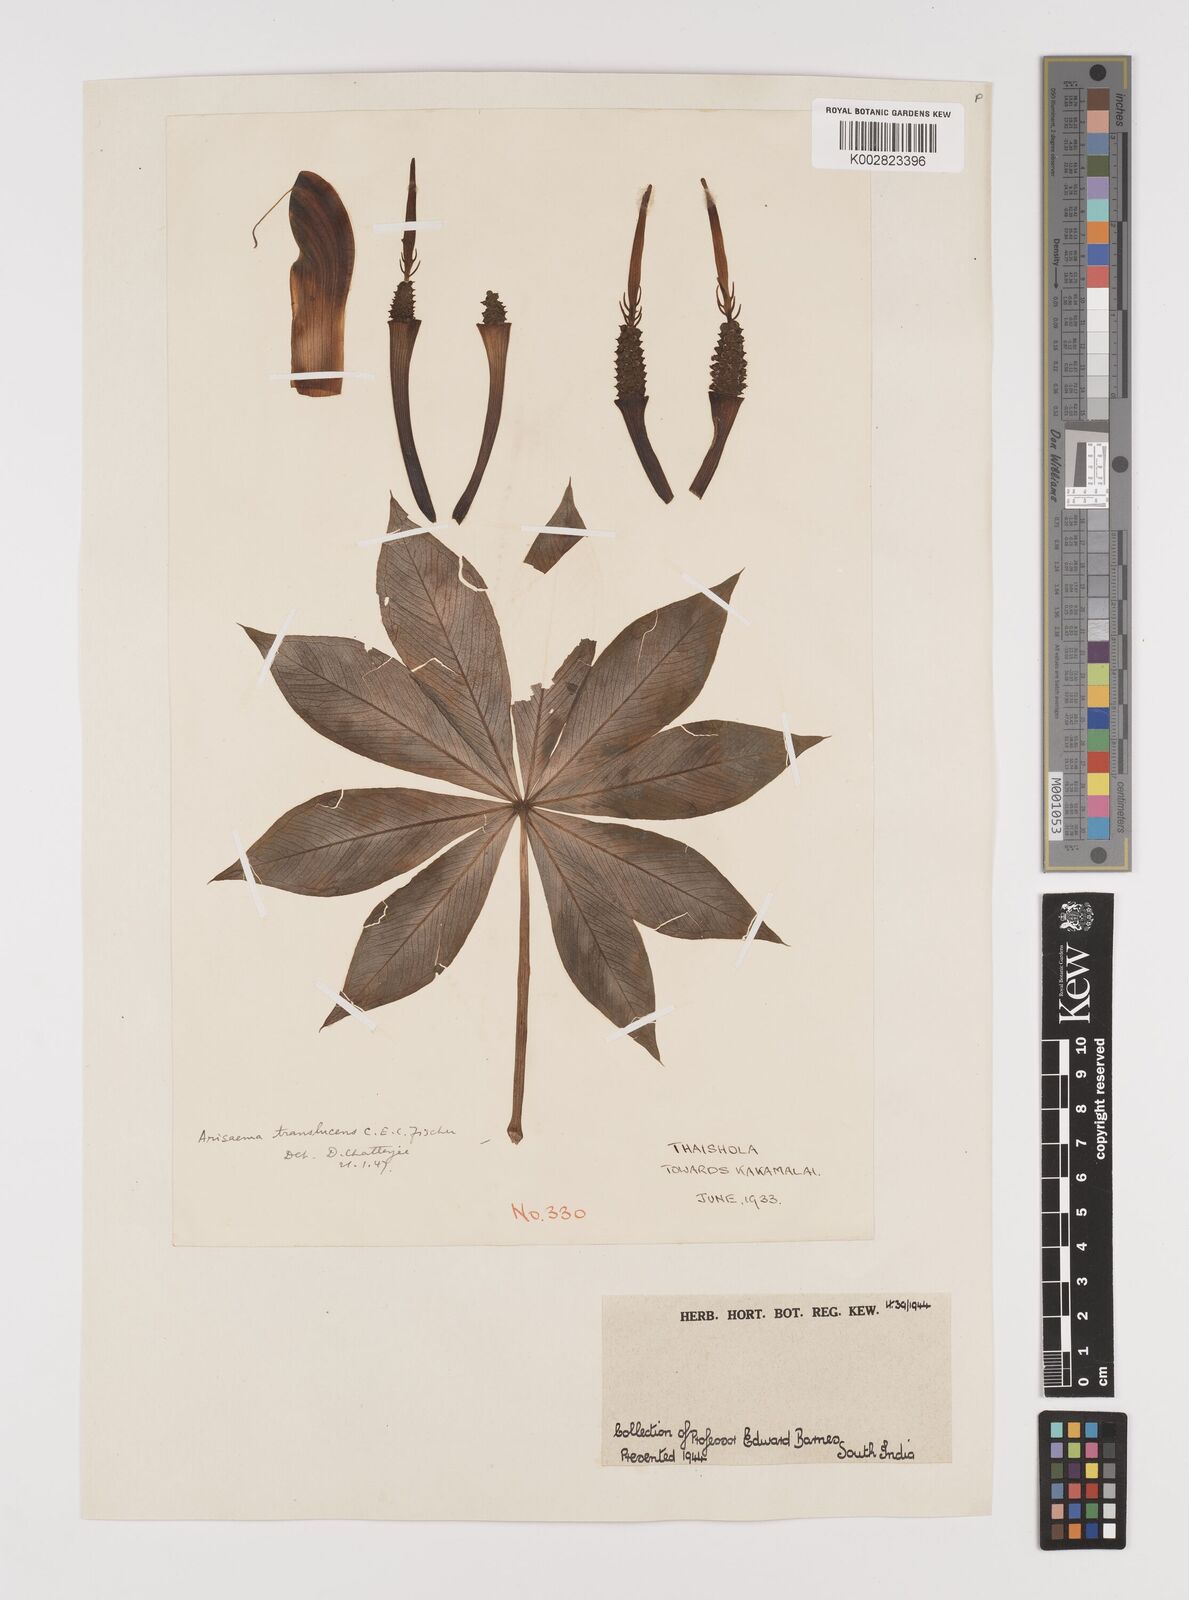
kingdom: Plantae
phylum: Tracheophyta
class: Liliopsida
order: Alismatales
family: Araceae
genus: Arisaema
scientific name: Arisaema translucens
